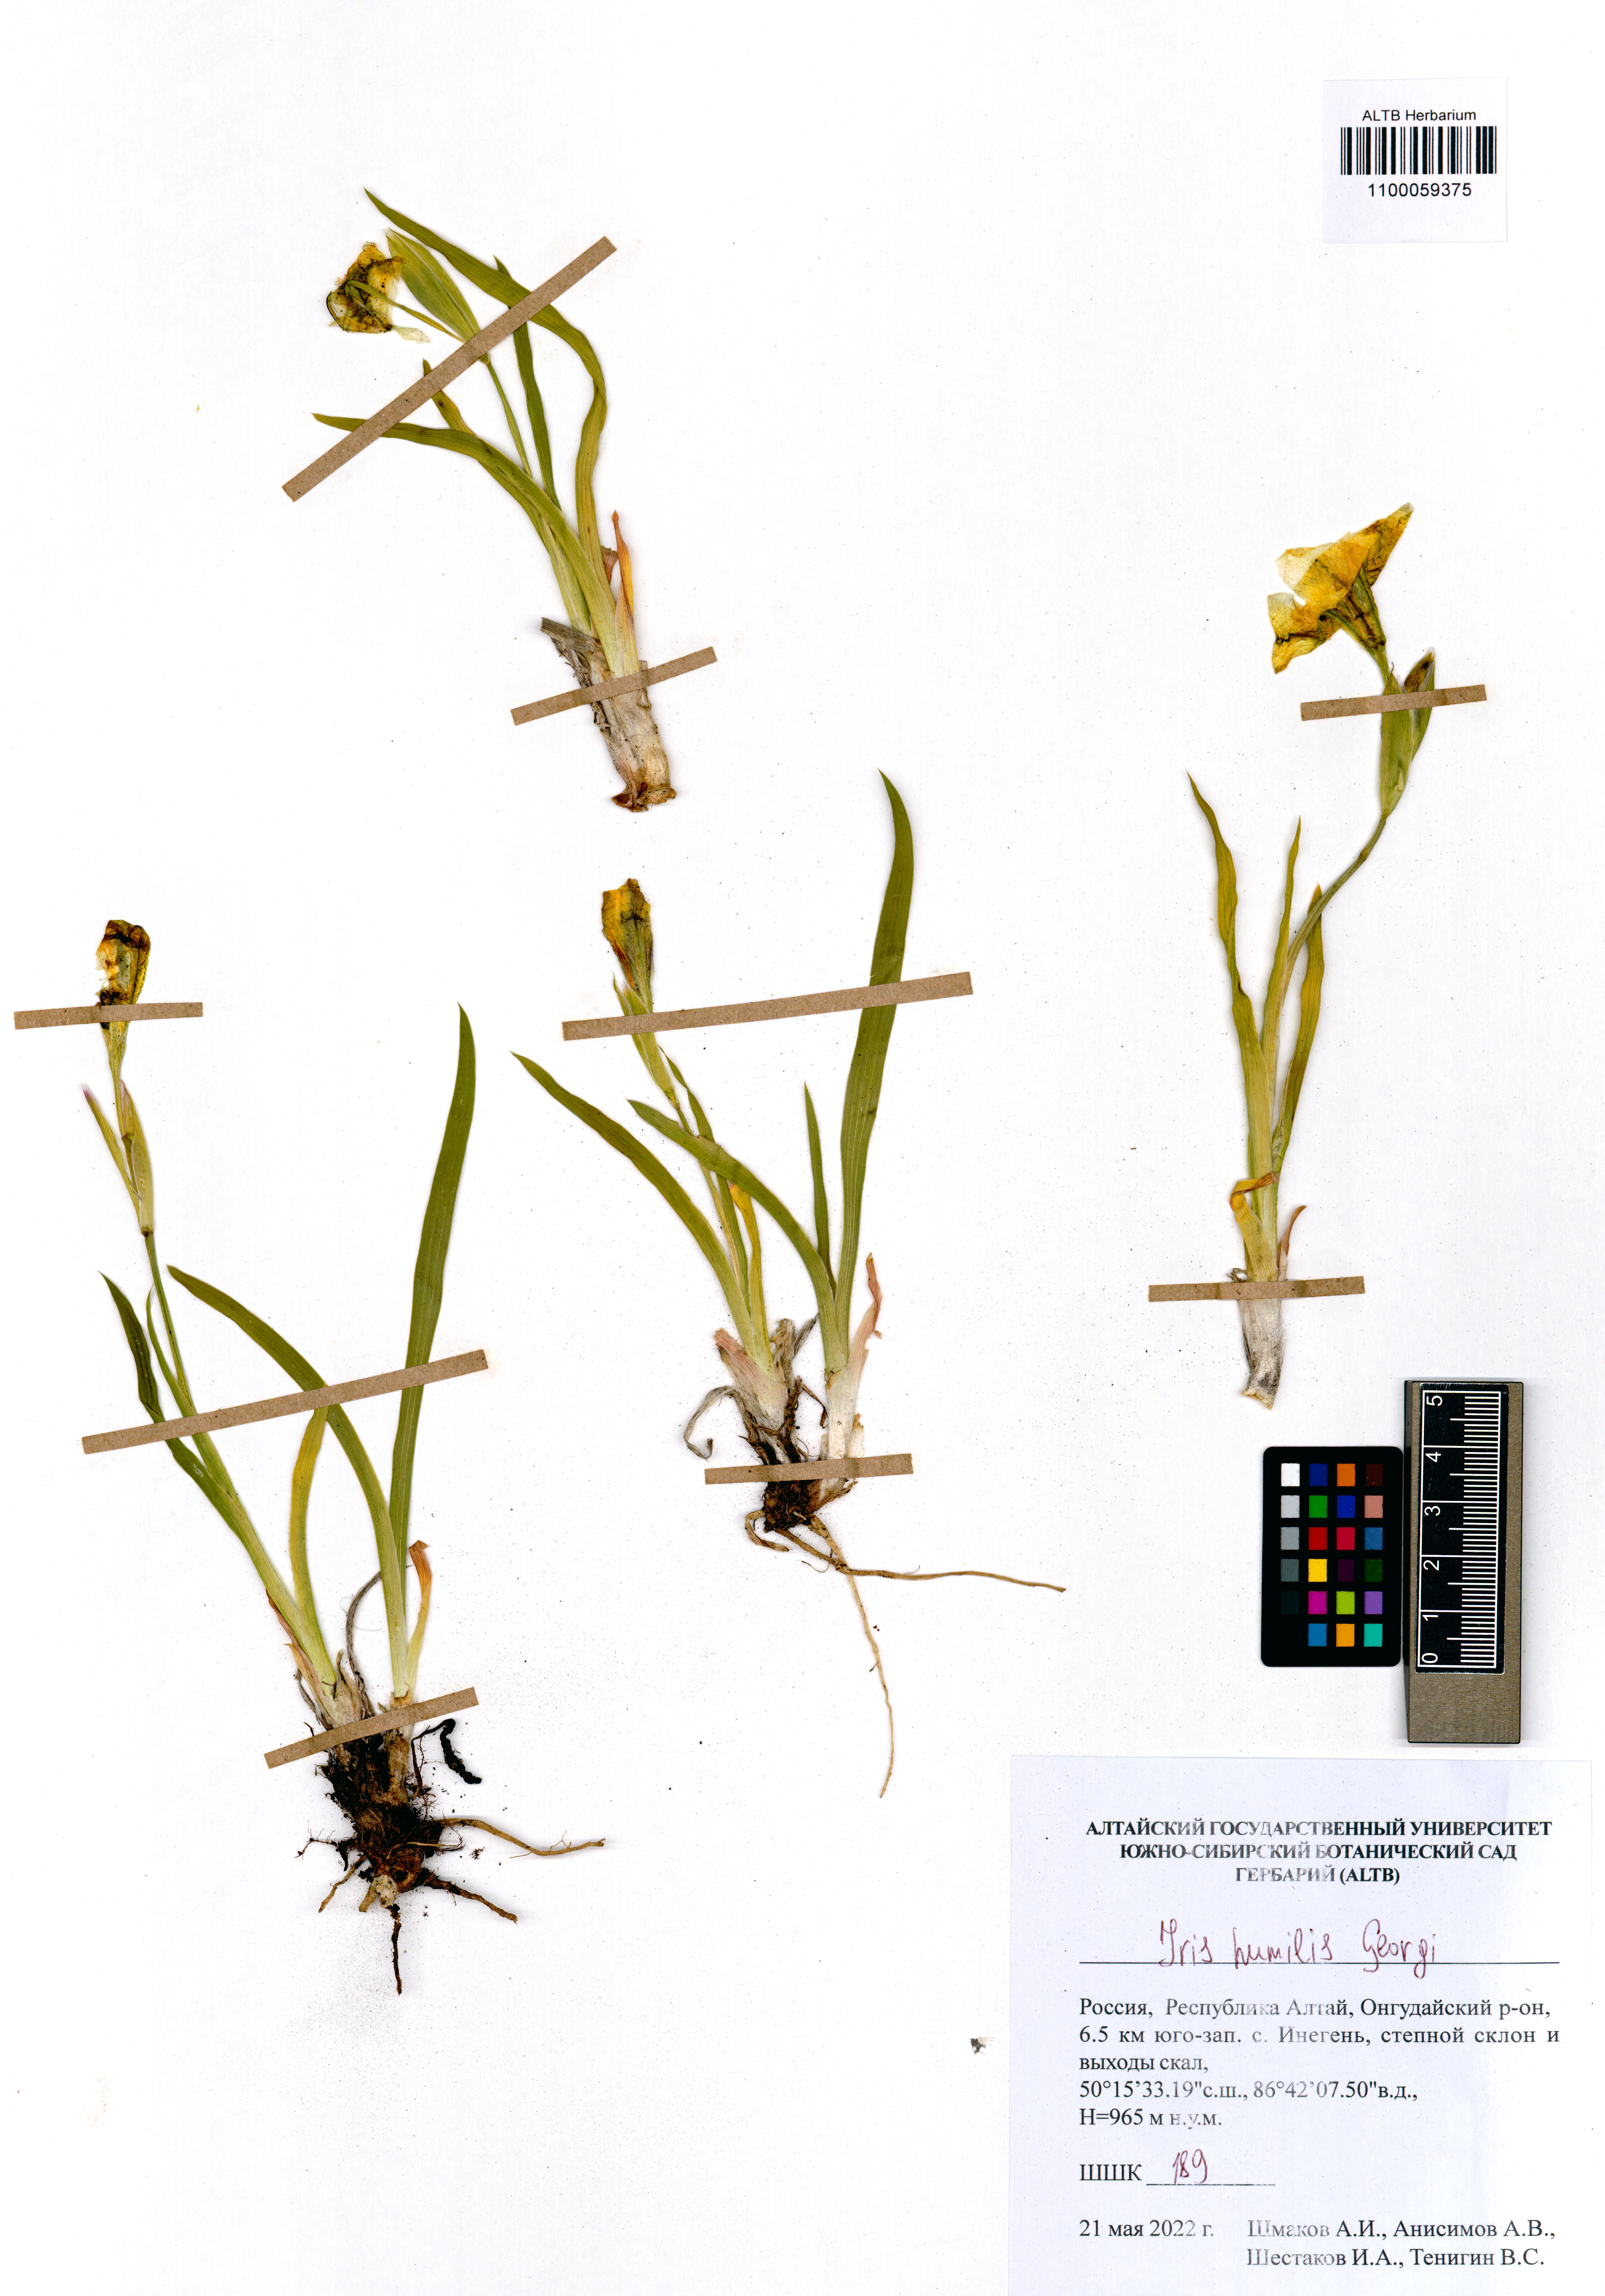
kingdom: Plantae
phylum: Tracheophyta
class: Liliopsida
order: Asparagales
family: Iridaceae
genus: Iris
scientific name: Iris humilis
